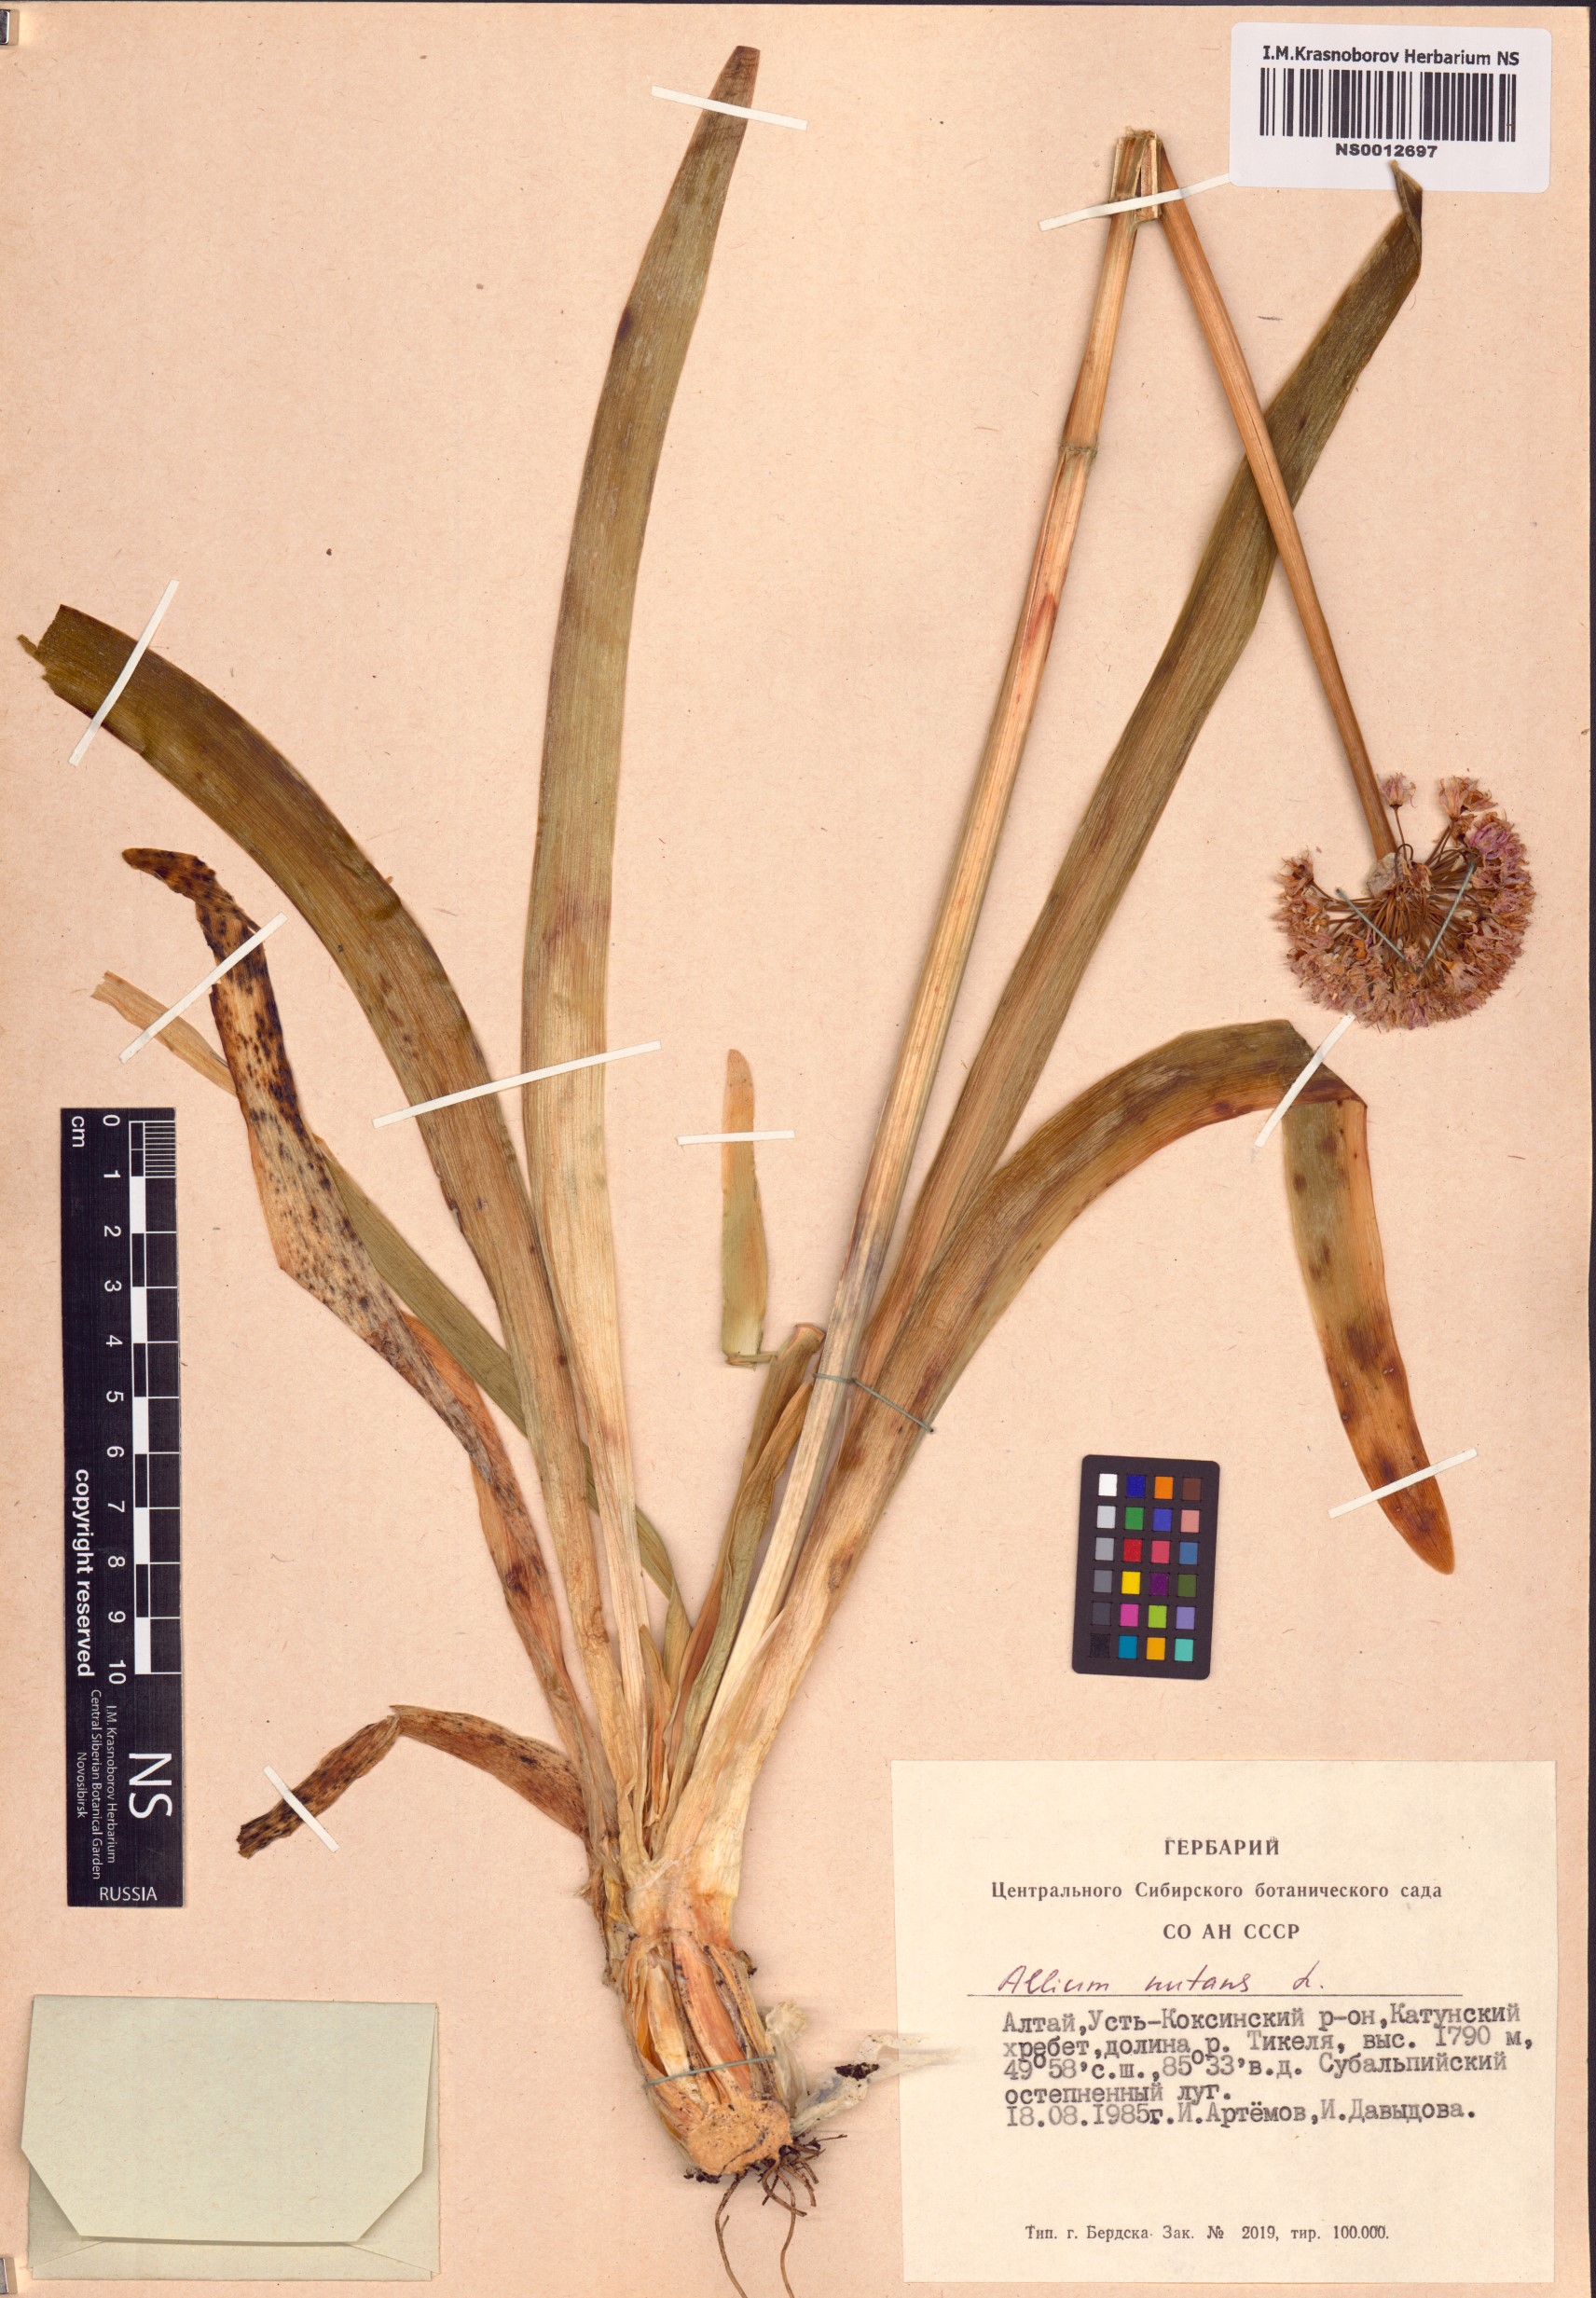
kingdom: Plantae
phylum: Tracheophyta
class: Liliopsida
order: Asparagales
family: Amaryllidaceae
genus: Allium
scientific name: Allium nutans
